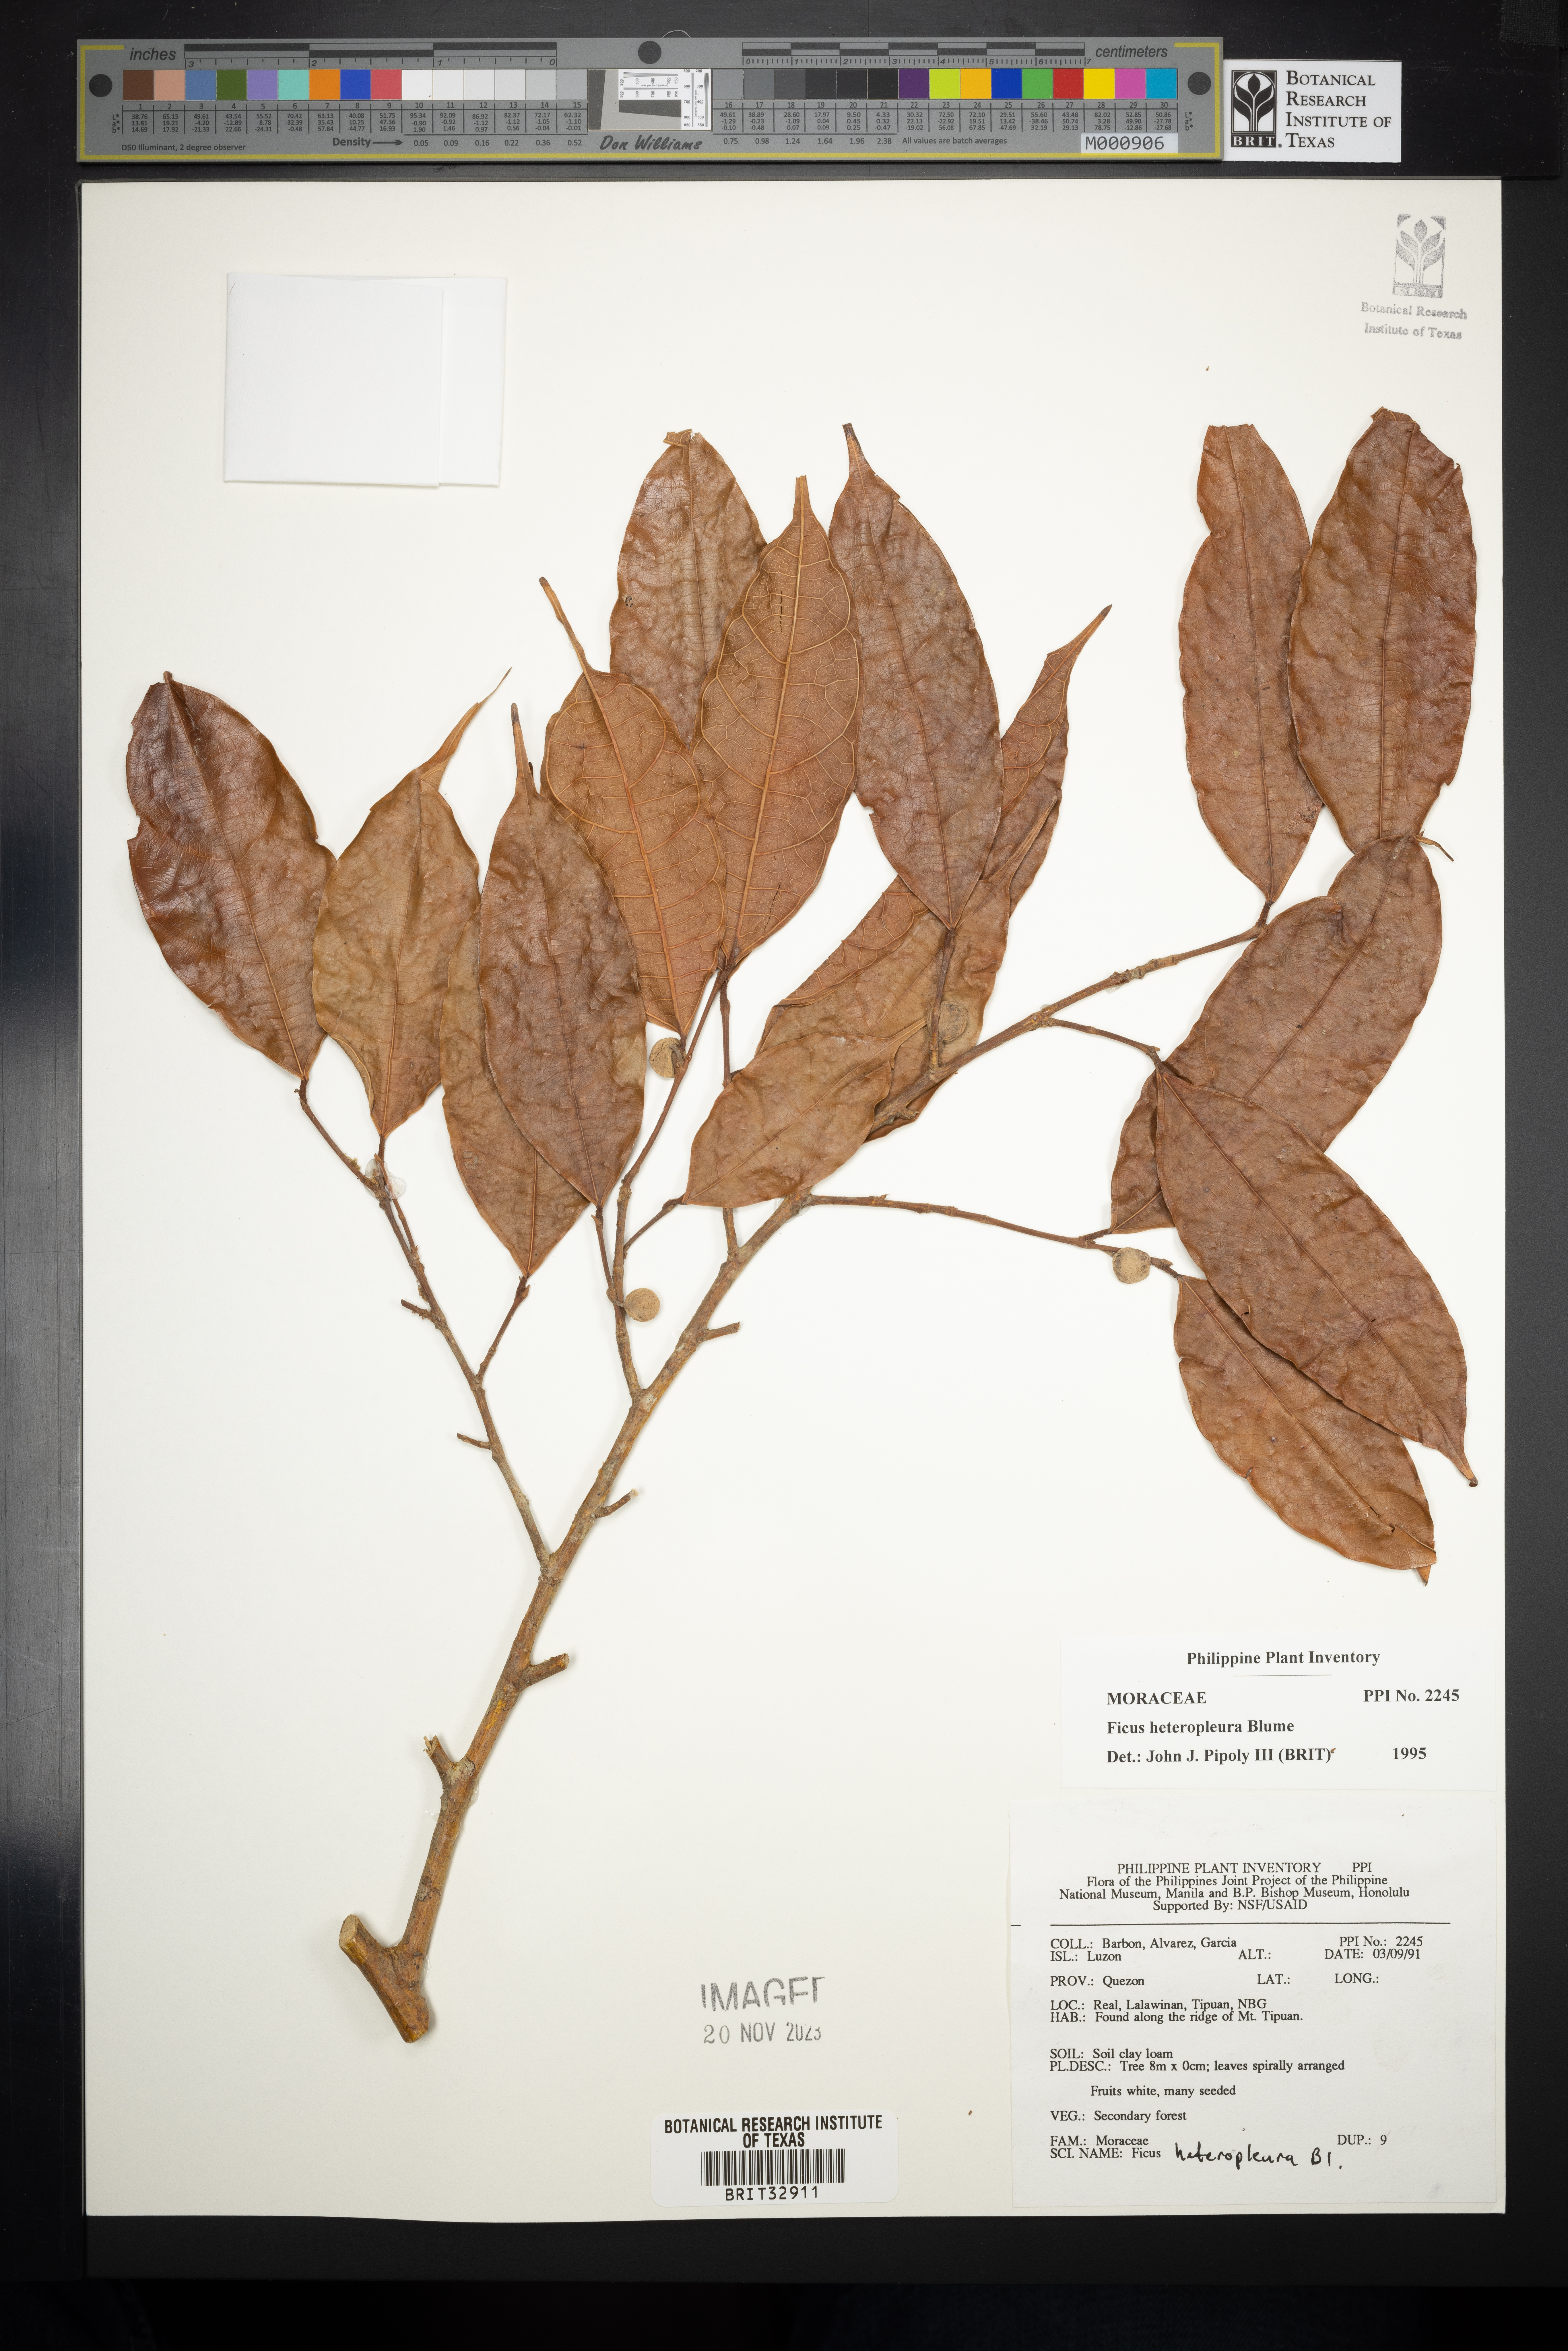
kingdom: Plantae
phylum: Tracheophyta
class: Magnoliopsida
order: Rosales
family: Moraceae
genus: Ficus
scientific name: Ficus heteropleura
